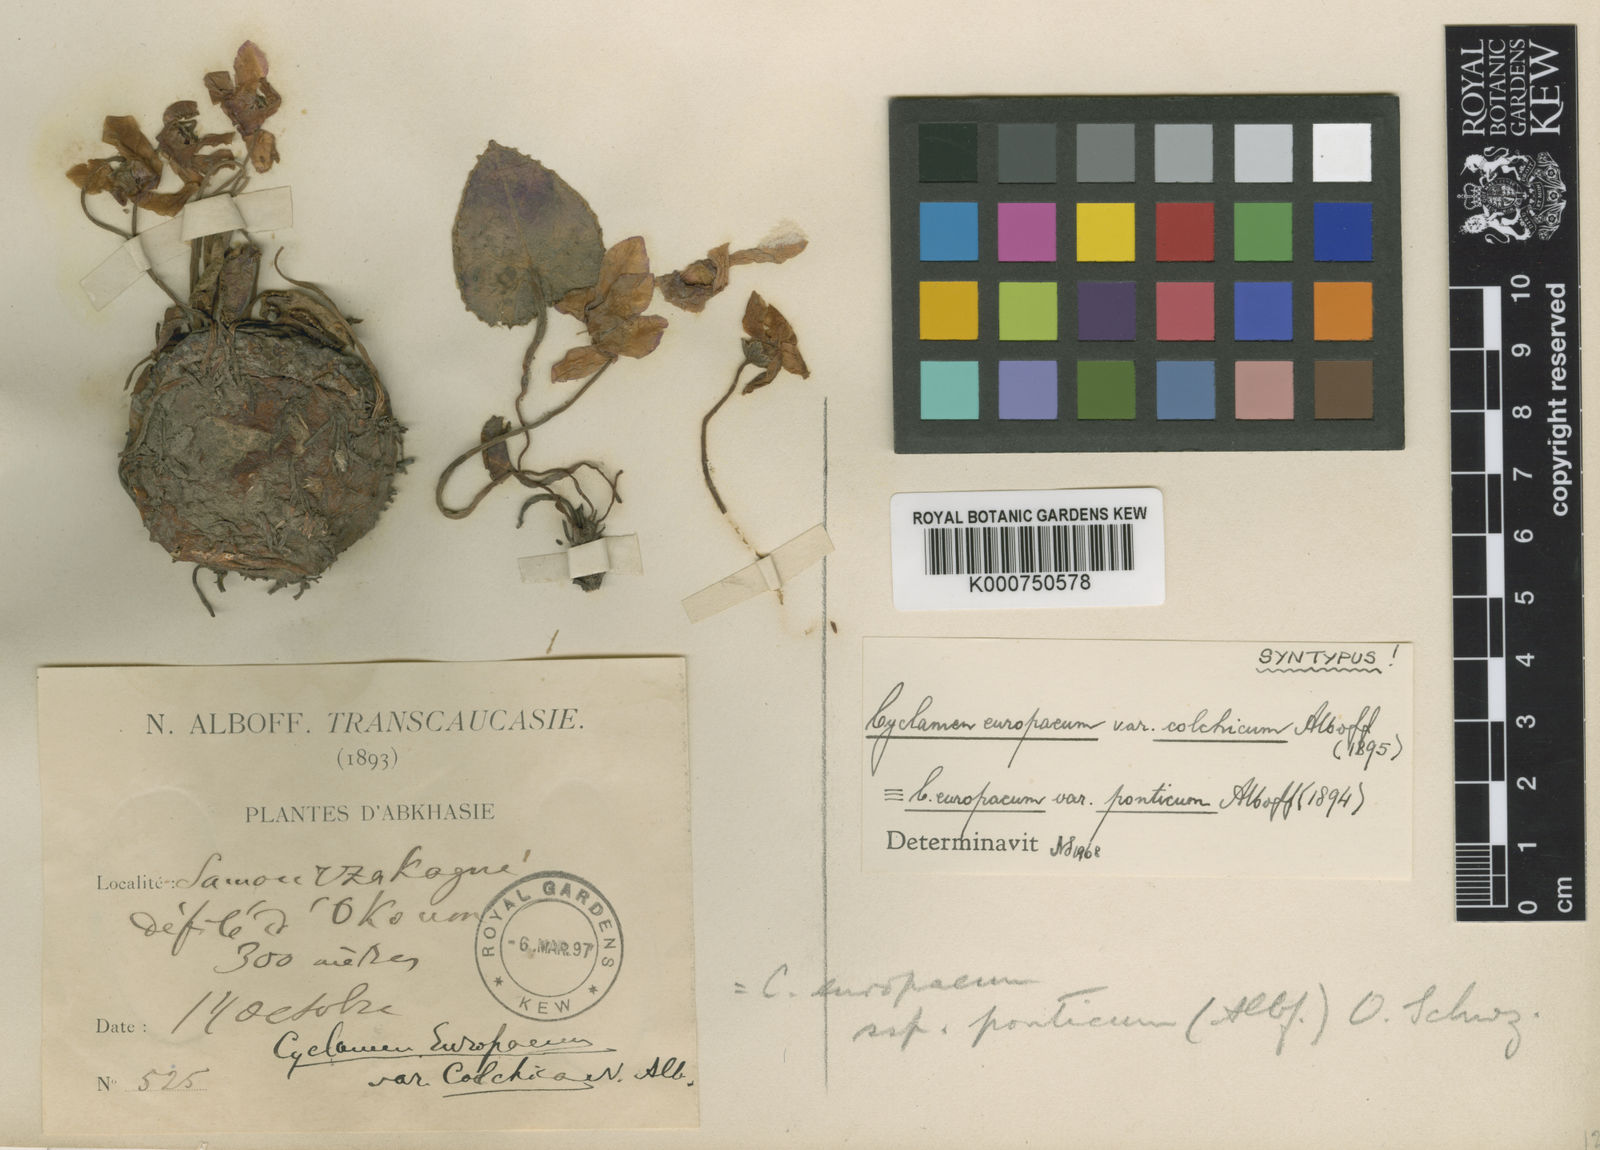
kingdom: Plantae
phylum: Tracheophyta
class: Magnoliopsida
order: Ericales
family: Primulaceae
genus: Cyclamen
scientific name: Cyclamen colchicum
